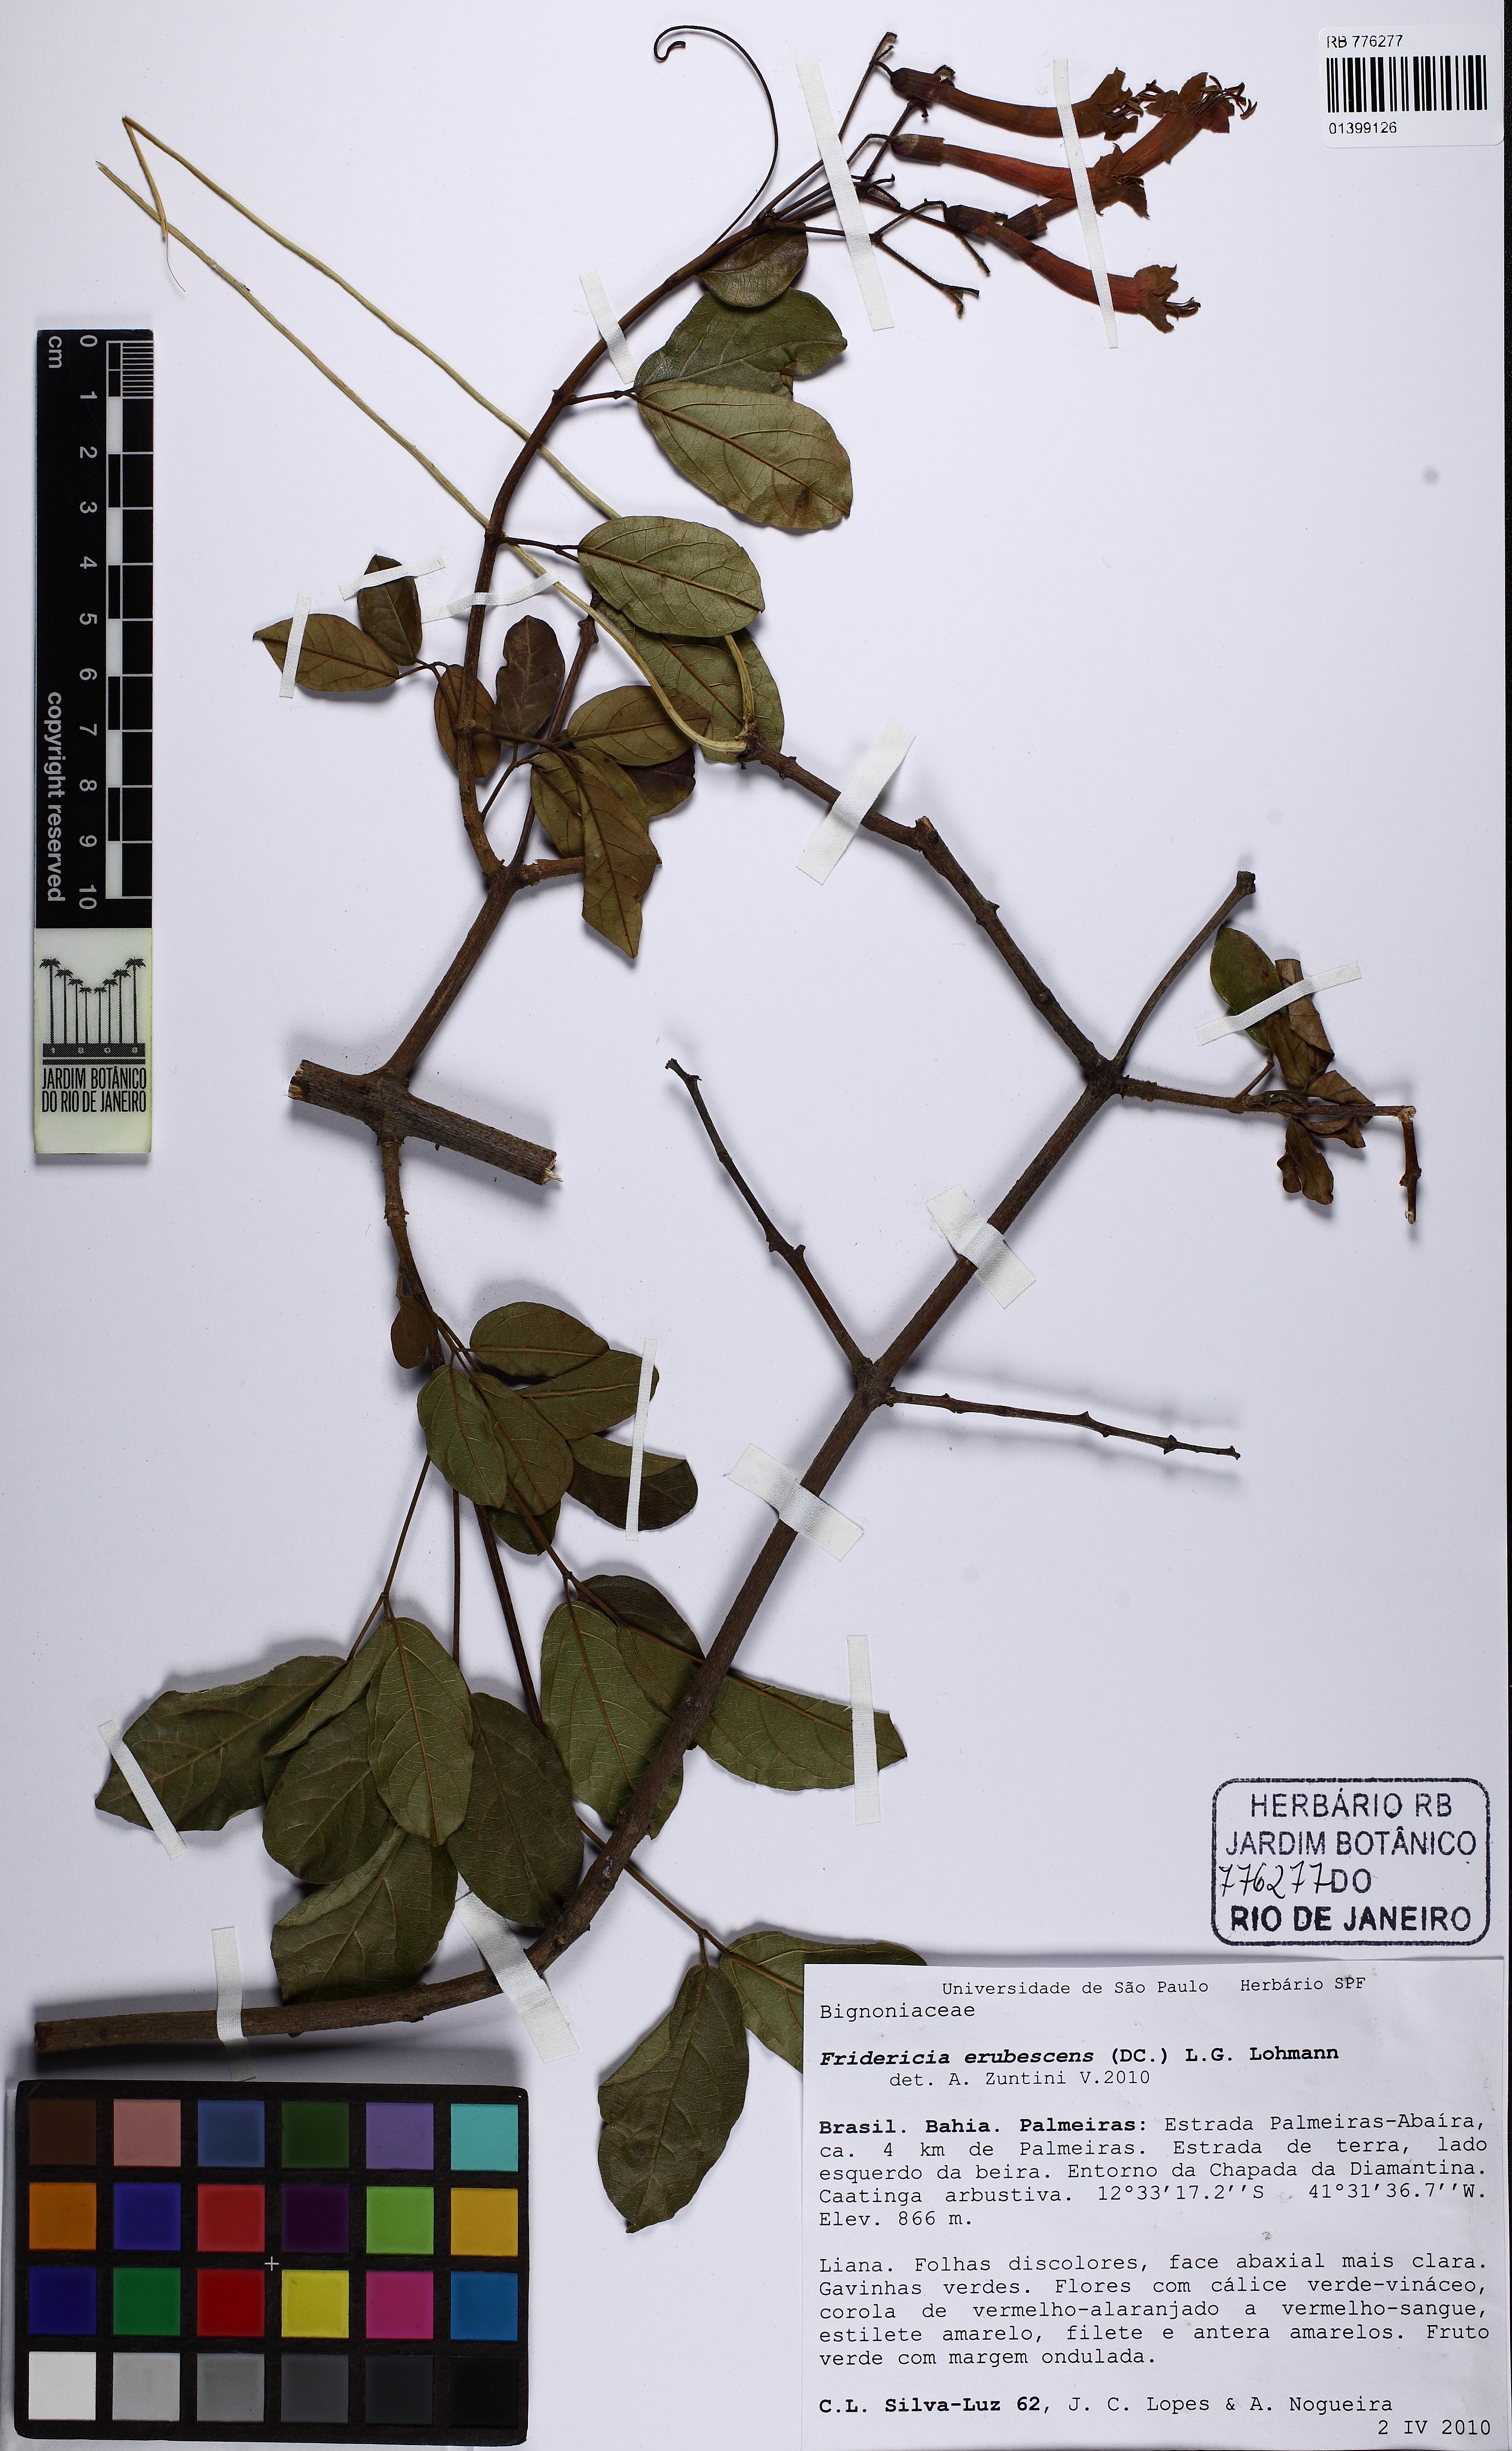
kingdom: Plantae
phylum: Tracheophyta
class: Magnoliopsida
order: Lamiales
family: Bignoniaceae
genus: Fridericia
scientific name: Fridericia erubescens
